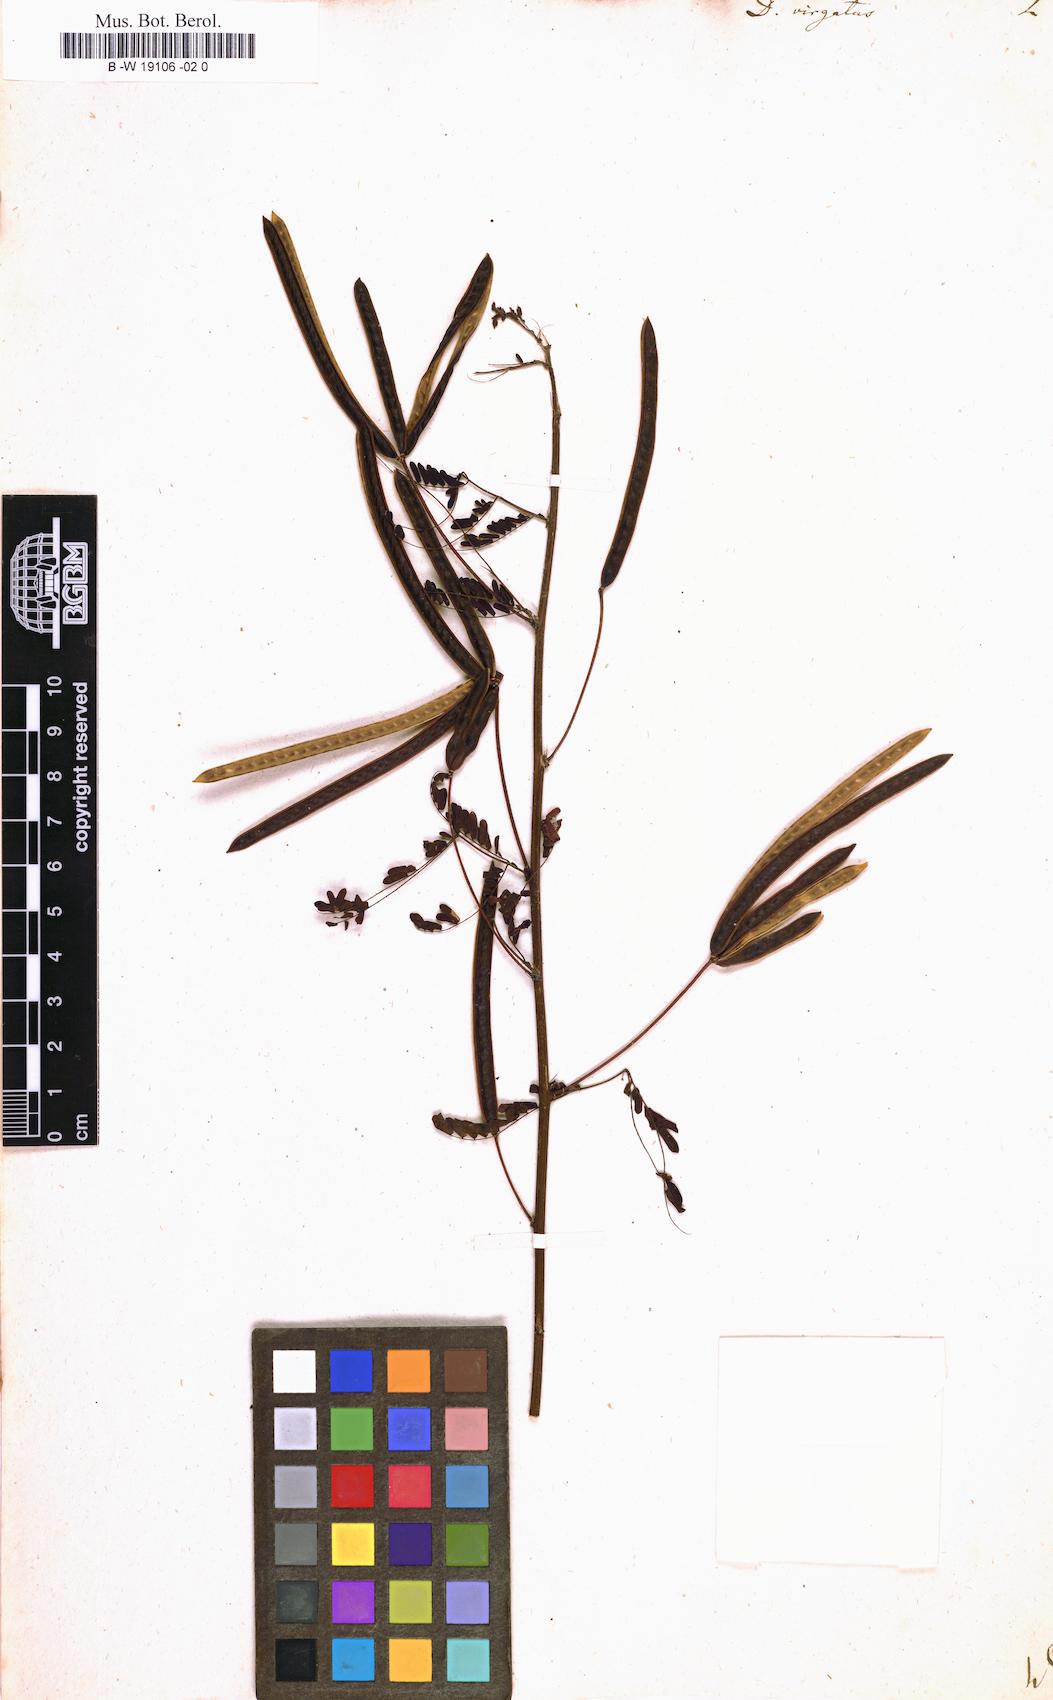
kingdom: Plantae
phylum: Tracheophyta
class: Magnoliopsida
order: Fabales
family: Fabaceae
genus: Desmanthus
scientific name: Desmanthus virgatus
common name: Wild tantan
